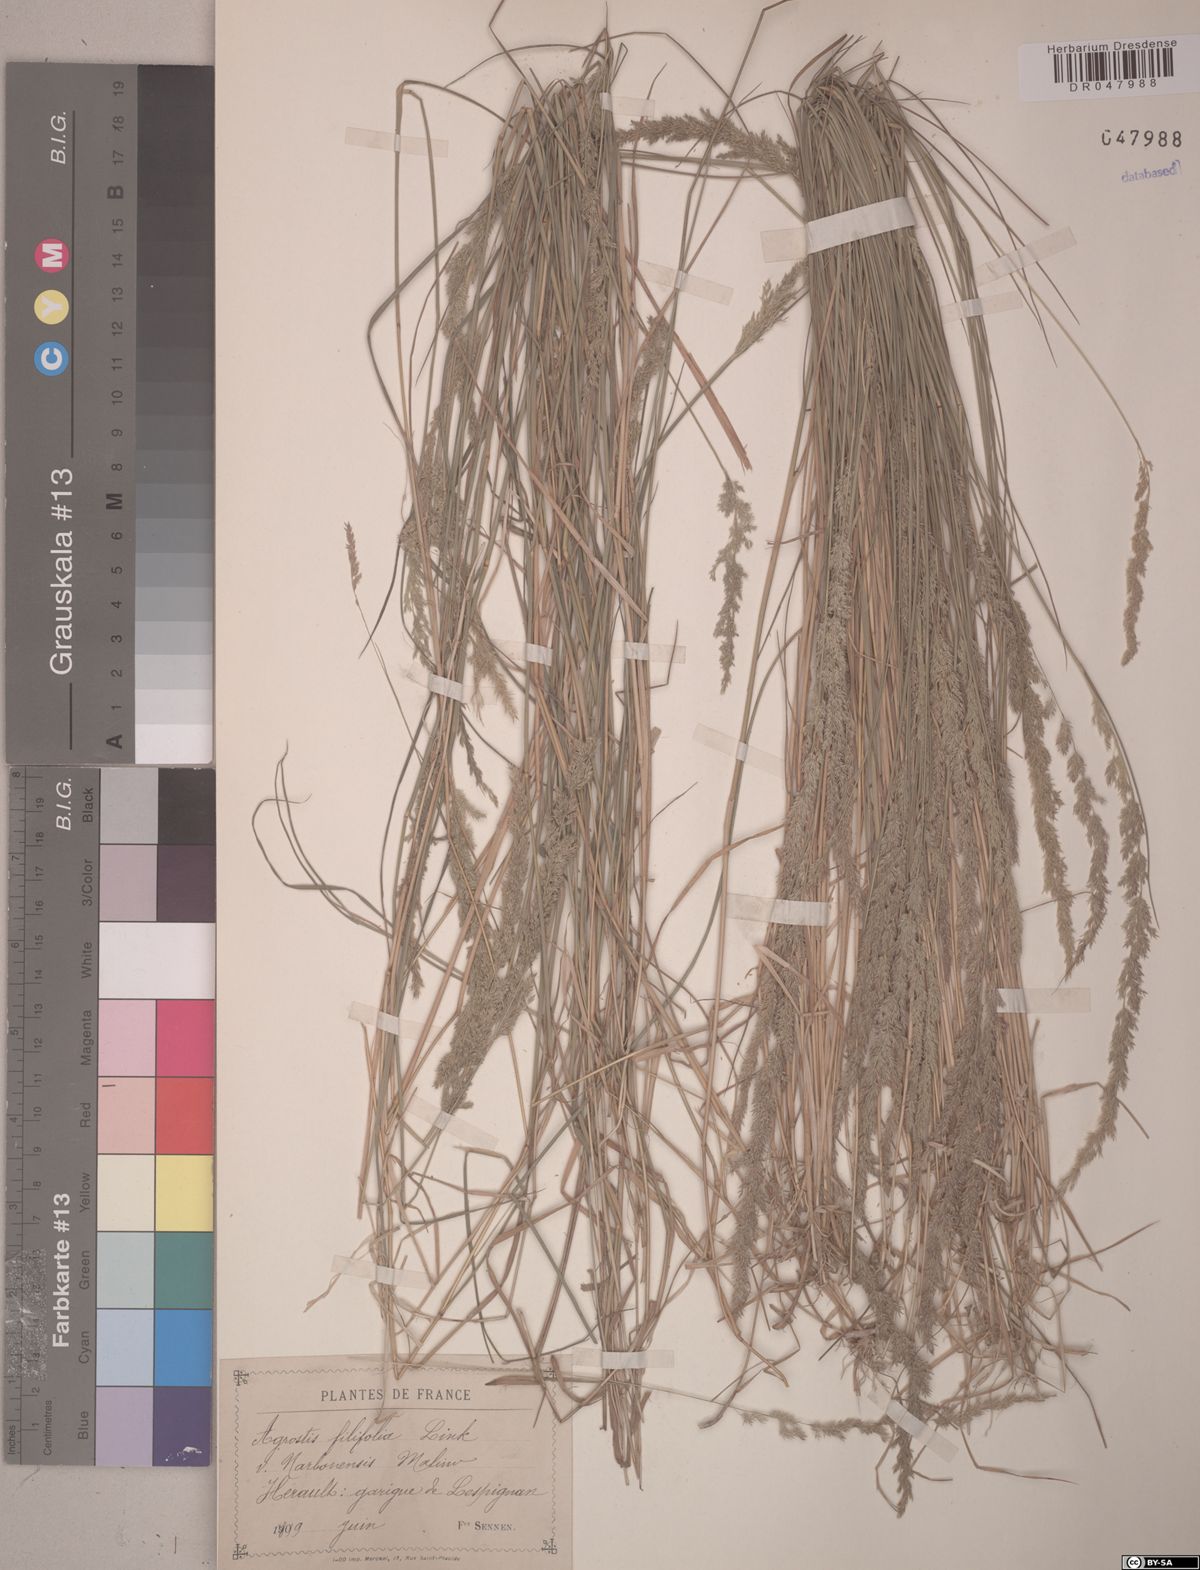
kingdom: Plantae
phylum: Tracheophyta
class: Liliopsida
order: Poales
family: Poaceae
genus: Agrostis
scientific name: Agrostis stolonifera
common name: Creeping bentgrass
